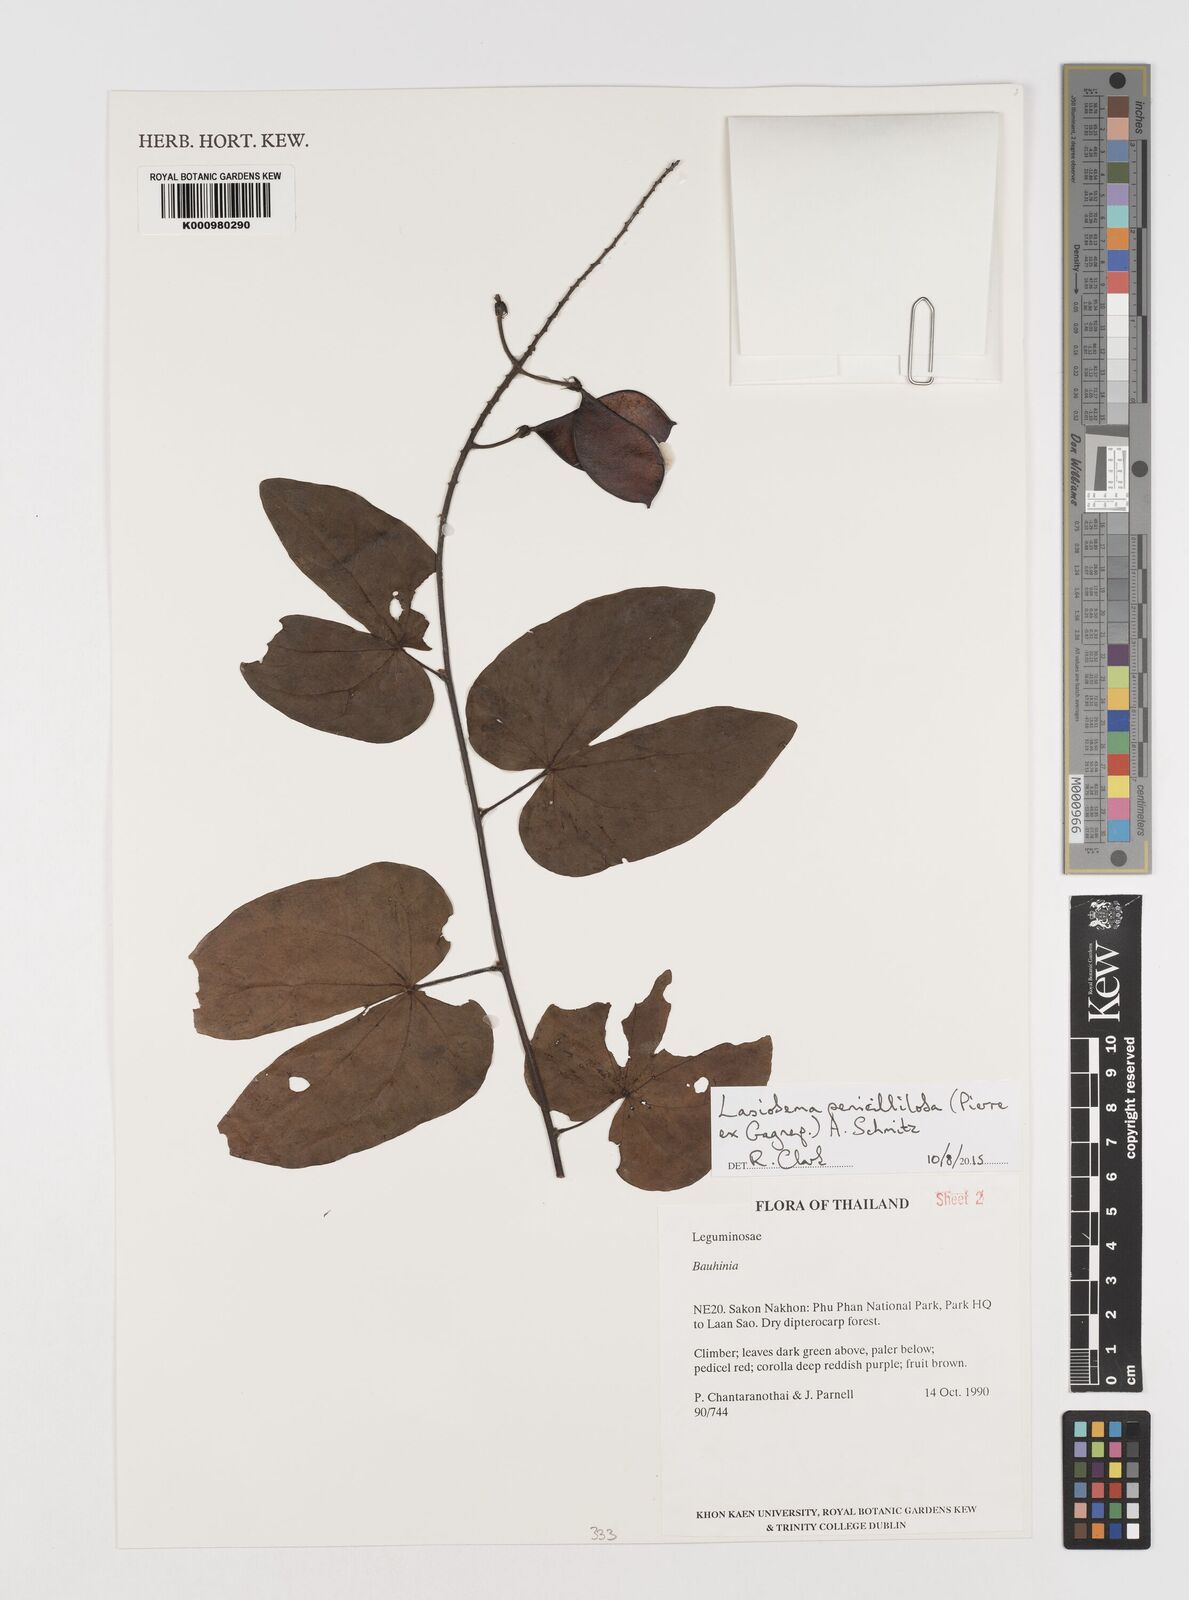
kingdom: Plantae
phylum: Tracheophyta
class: Magnoliopsida
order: Fabales
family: Fabaceae
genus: Phanera
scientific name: Phanera penicilliloba
